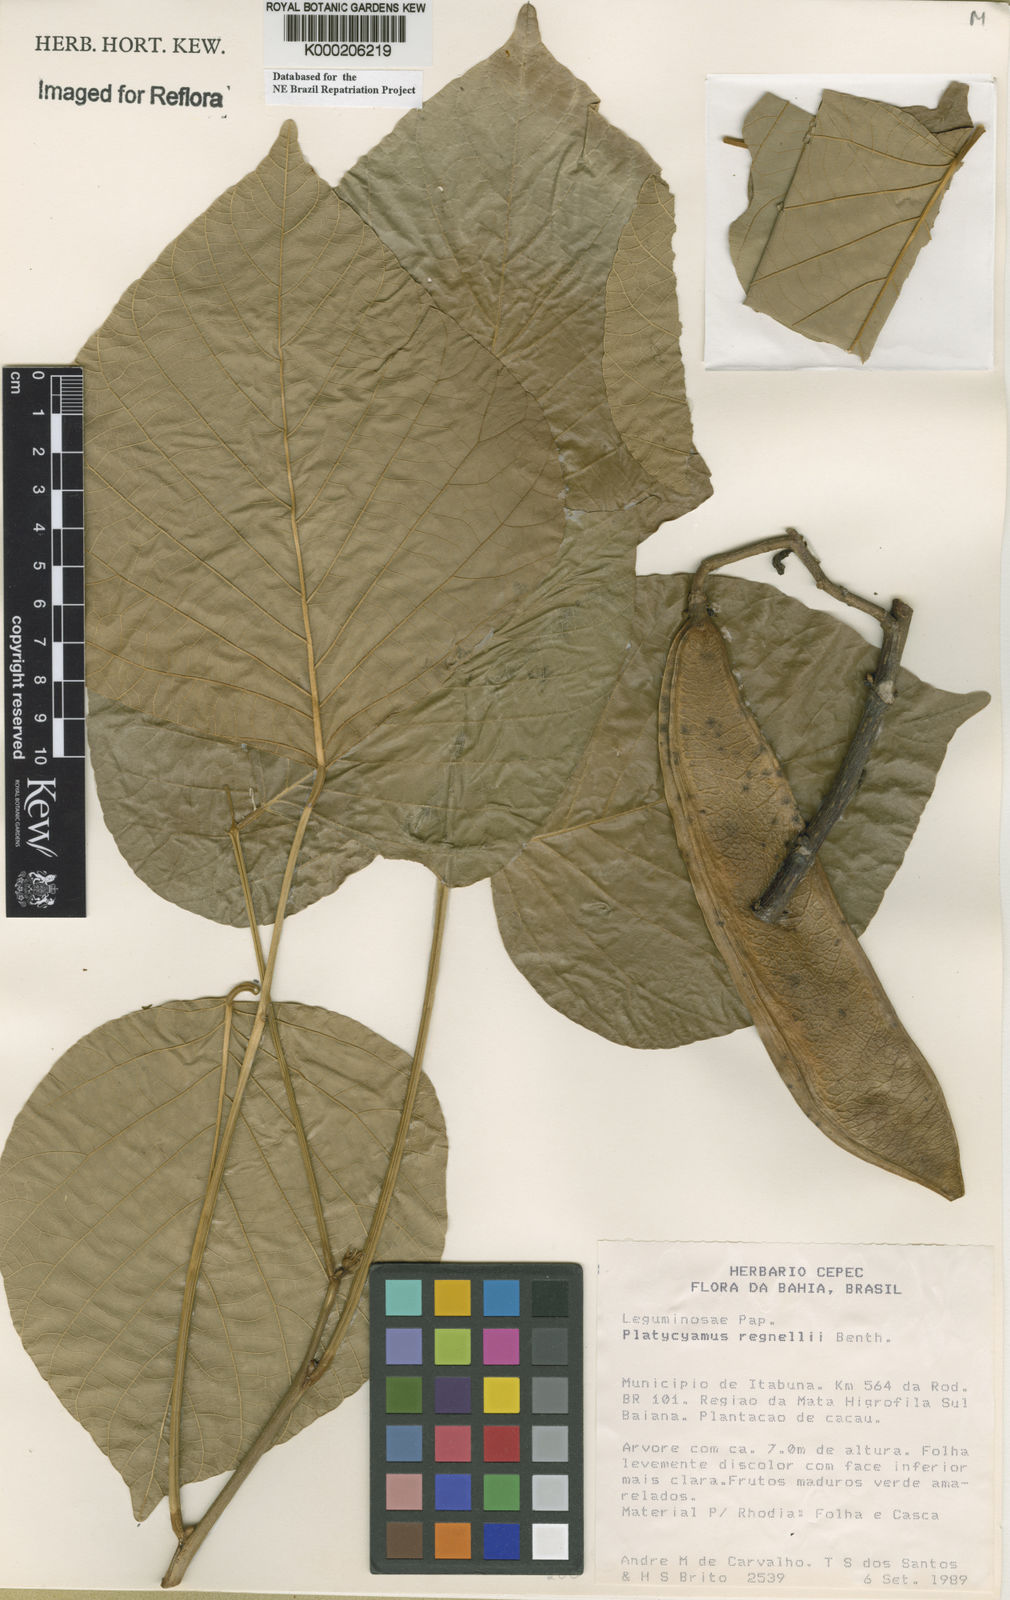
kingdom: Plantae
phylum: Tracheophyta
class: Magnoliopsida
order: Fabales
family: Fabaceae
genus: Platycyamus
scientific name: Platycyamus regnellii
